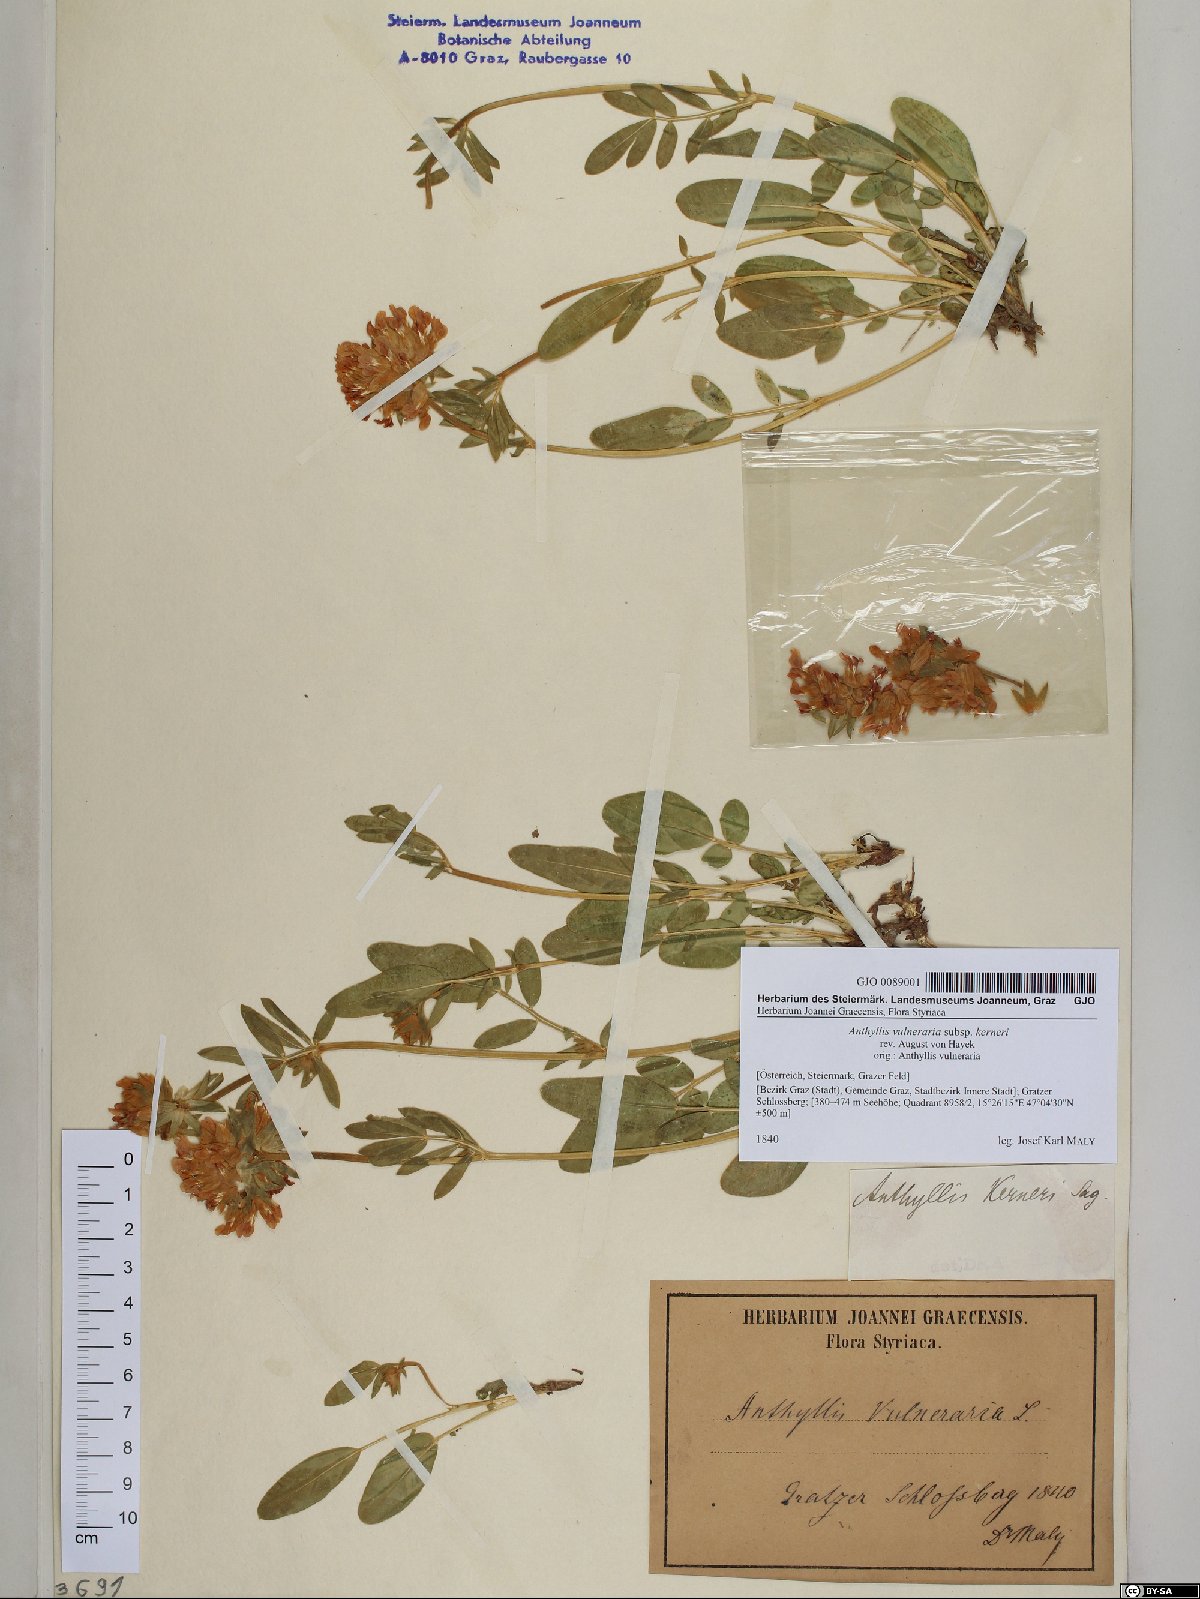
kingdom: Plantae
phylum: Tracheophyta
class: Magnoliopsida
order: Fabales
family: Fabaceae
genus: Anthyllis
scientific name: Anthyllis vulneraria
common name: Kidney vetch
